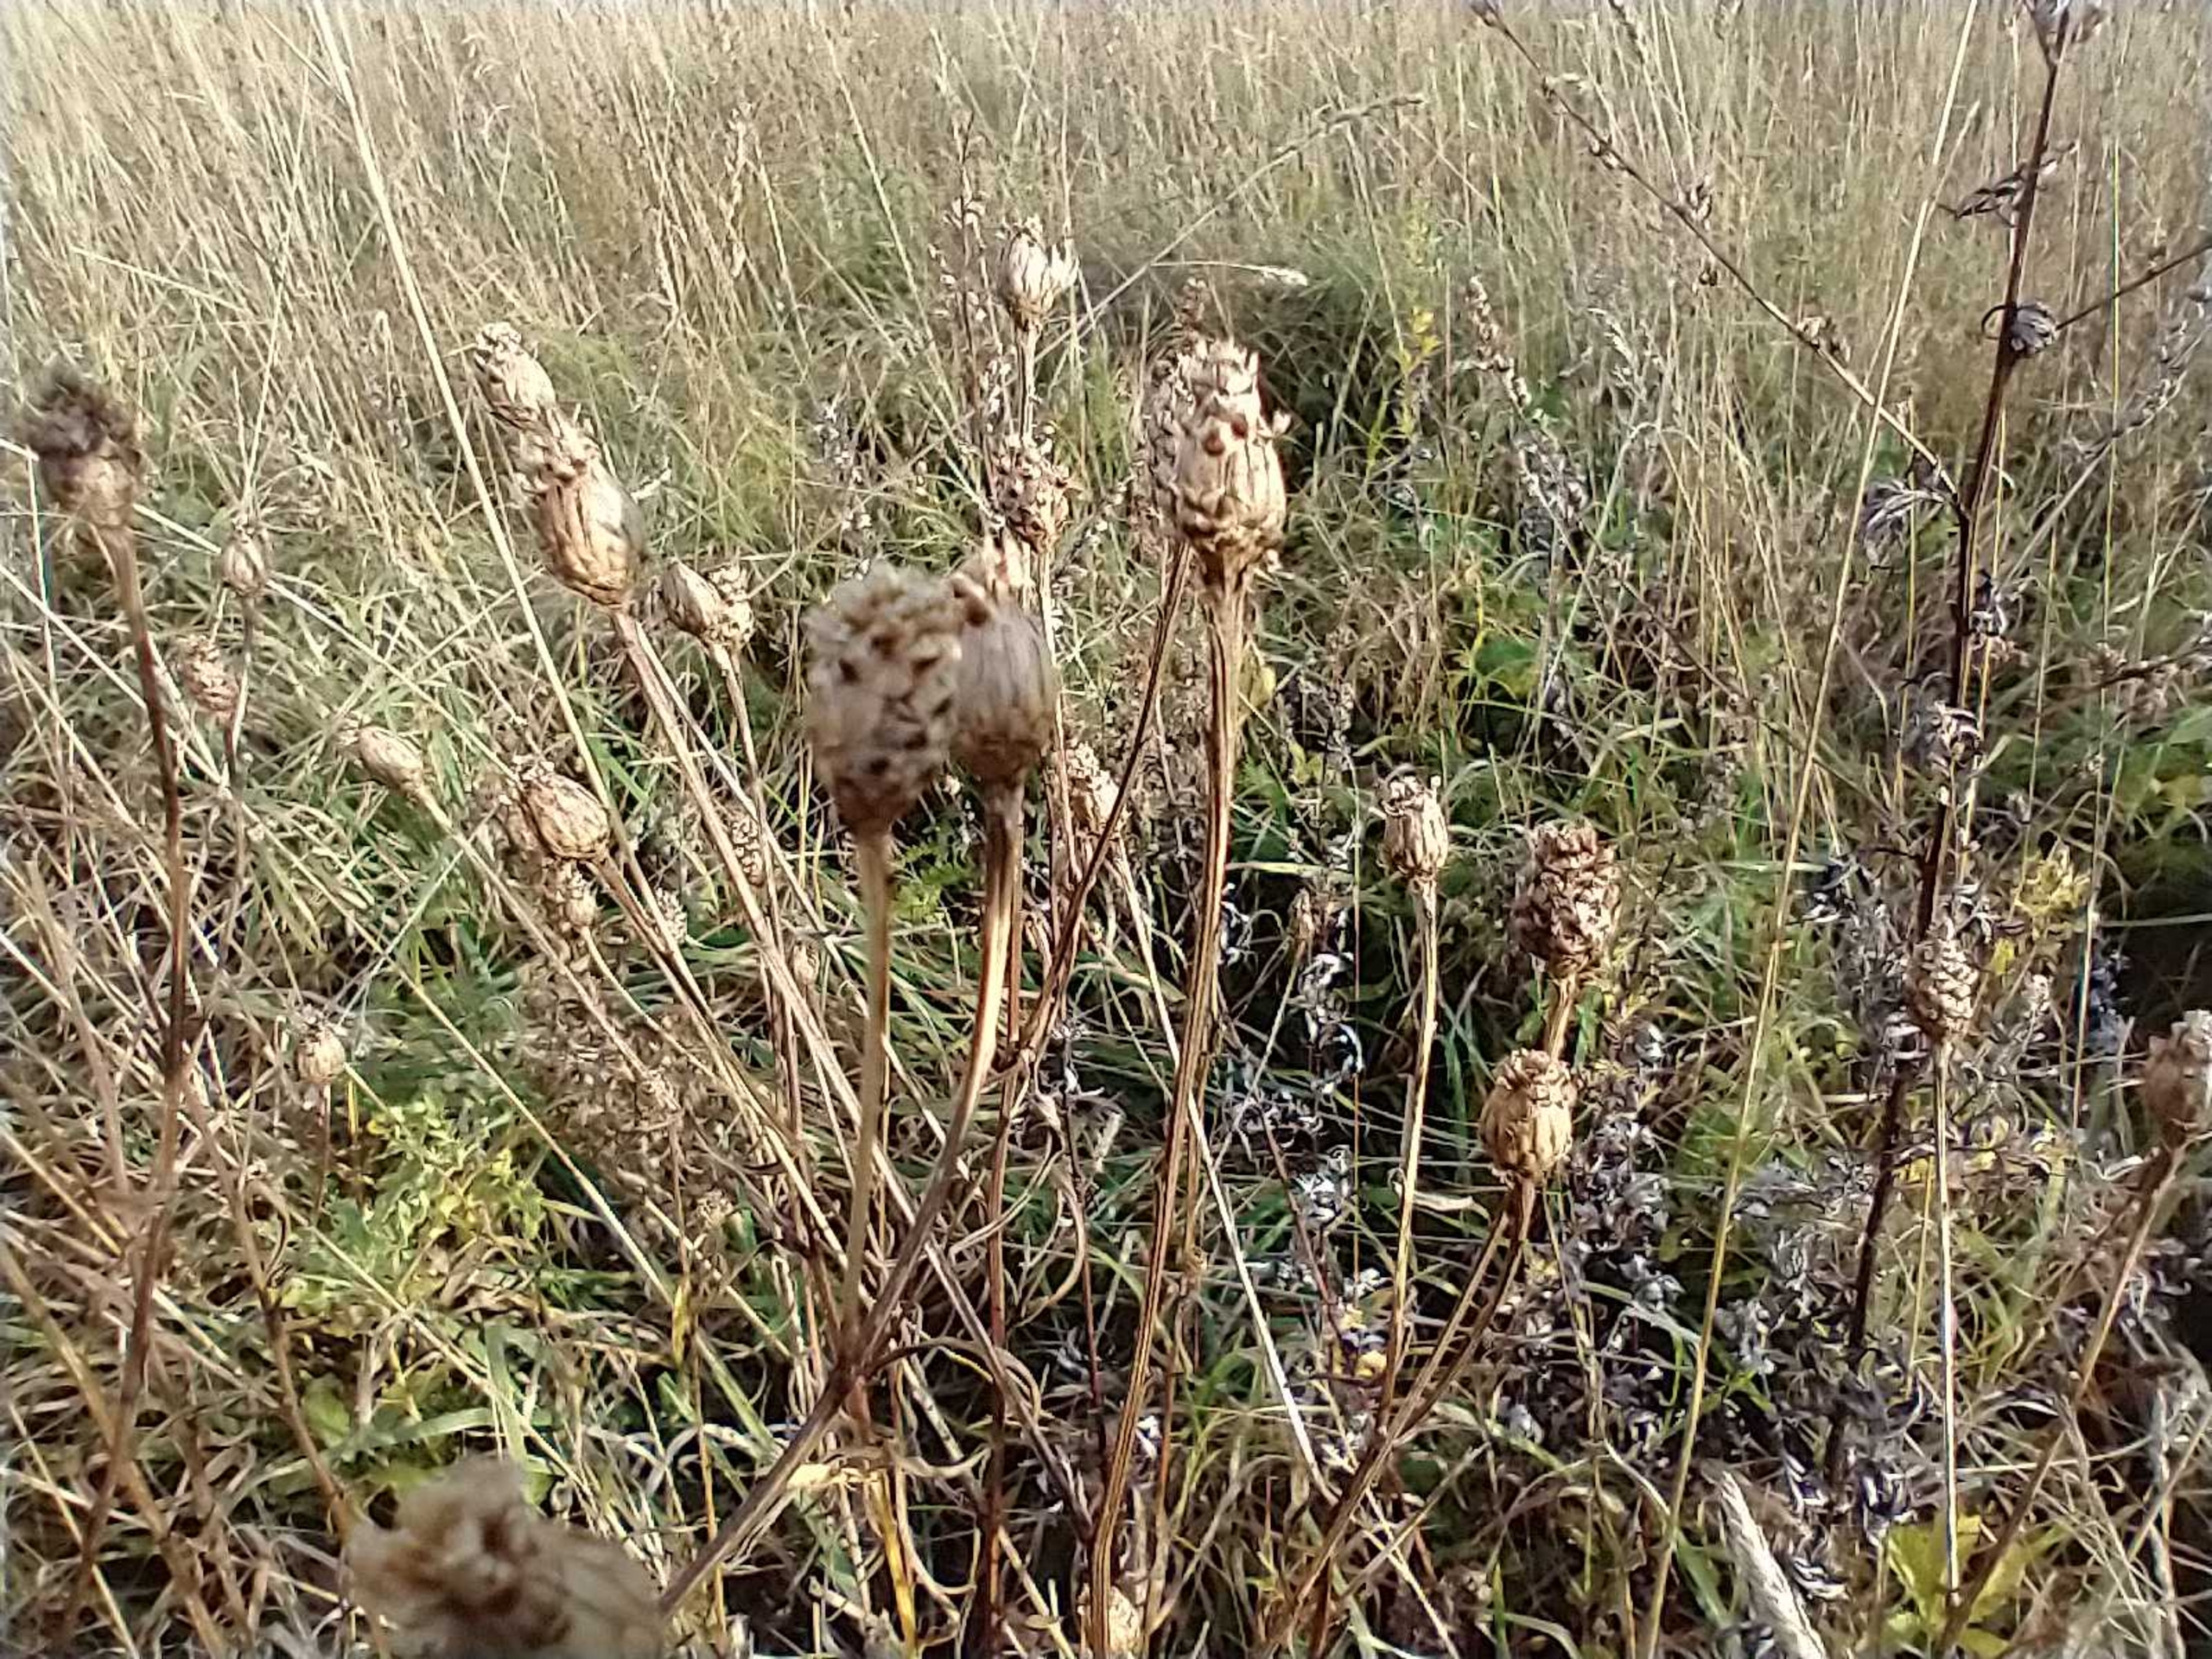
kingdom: Plantae
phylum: Tracheophyta
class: Magnoliopsida
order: Asterales
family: Asteraceae
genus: Centaurea
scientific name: Centaurea jacea
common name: Almindelig knopurt
